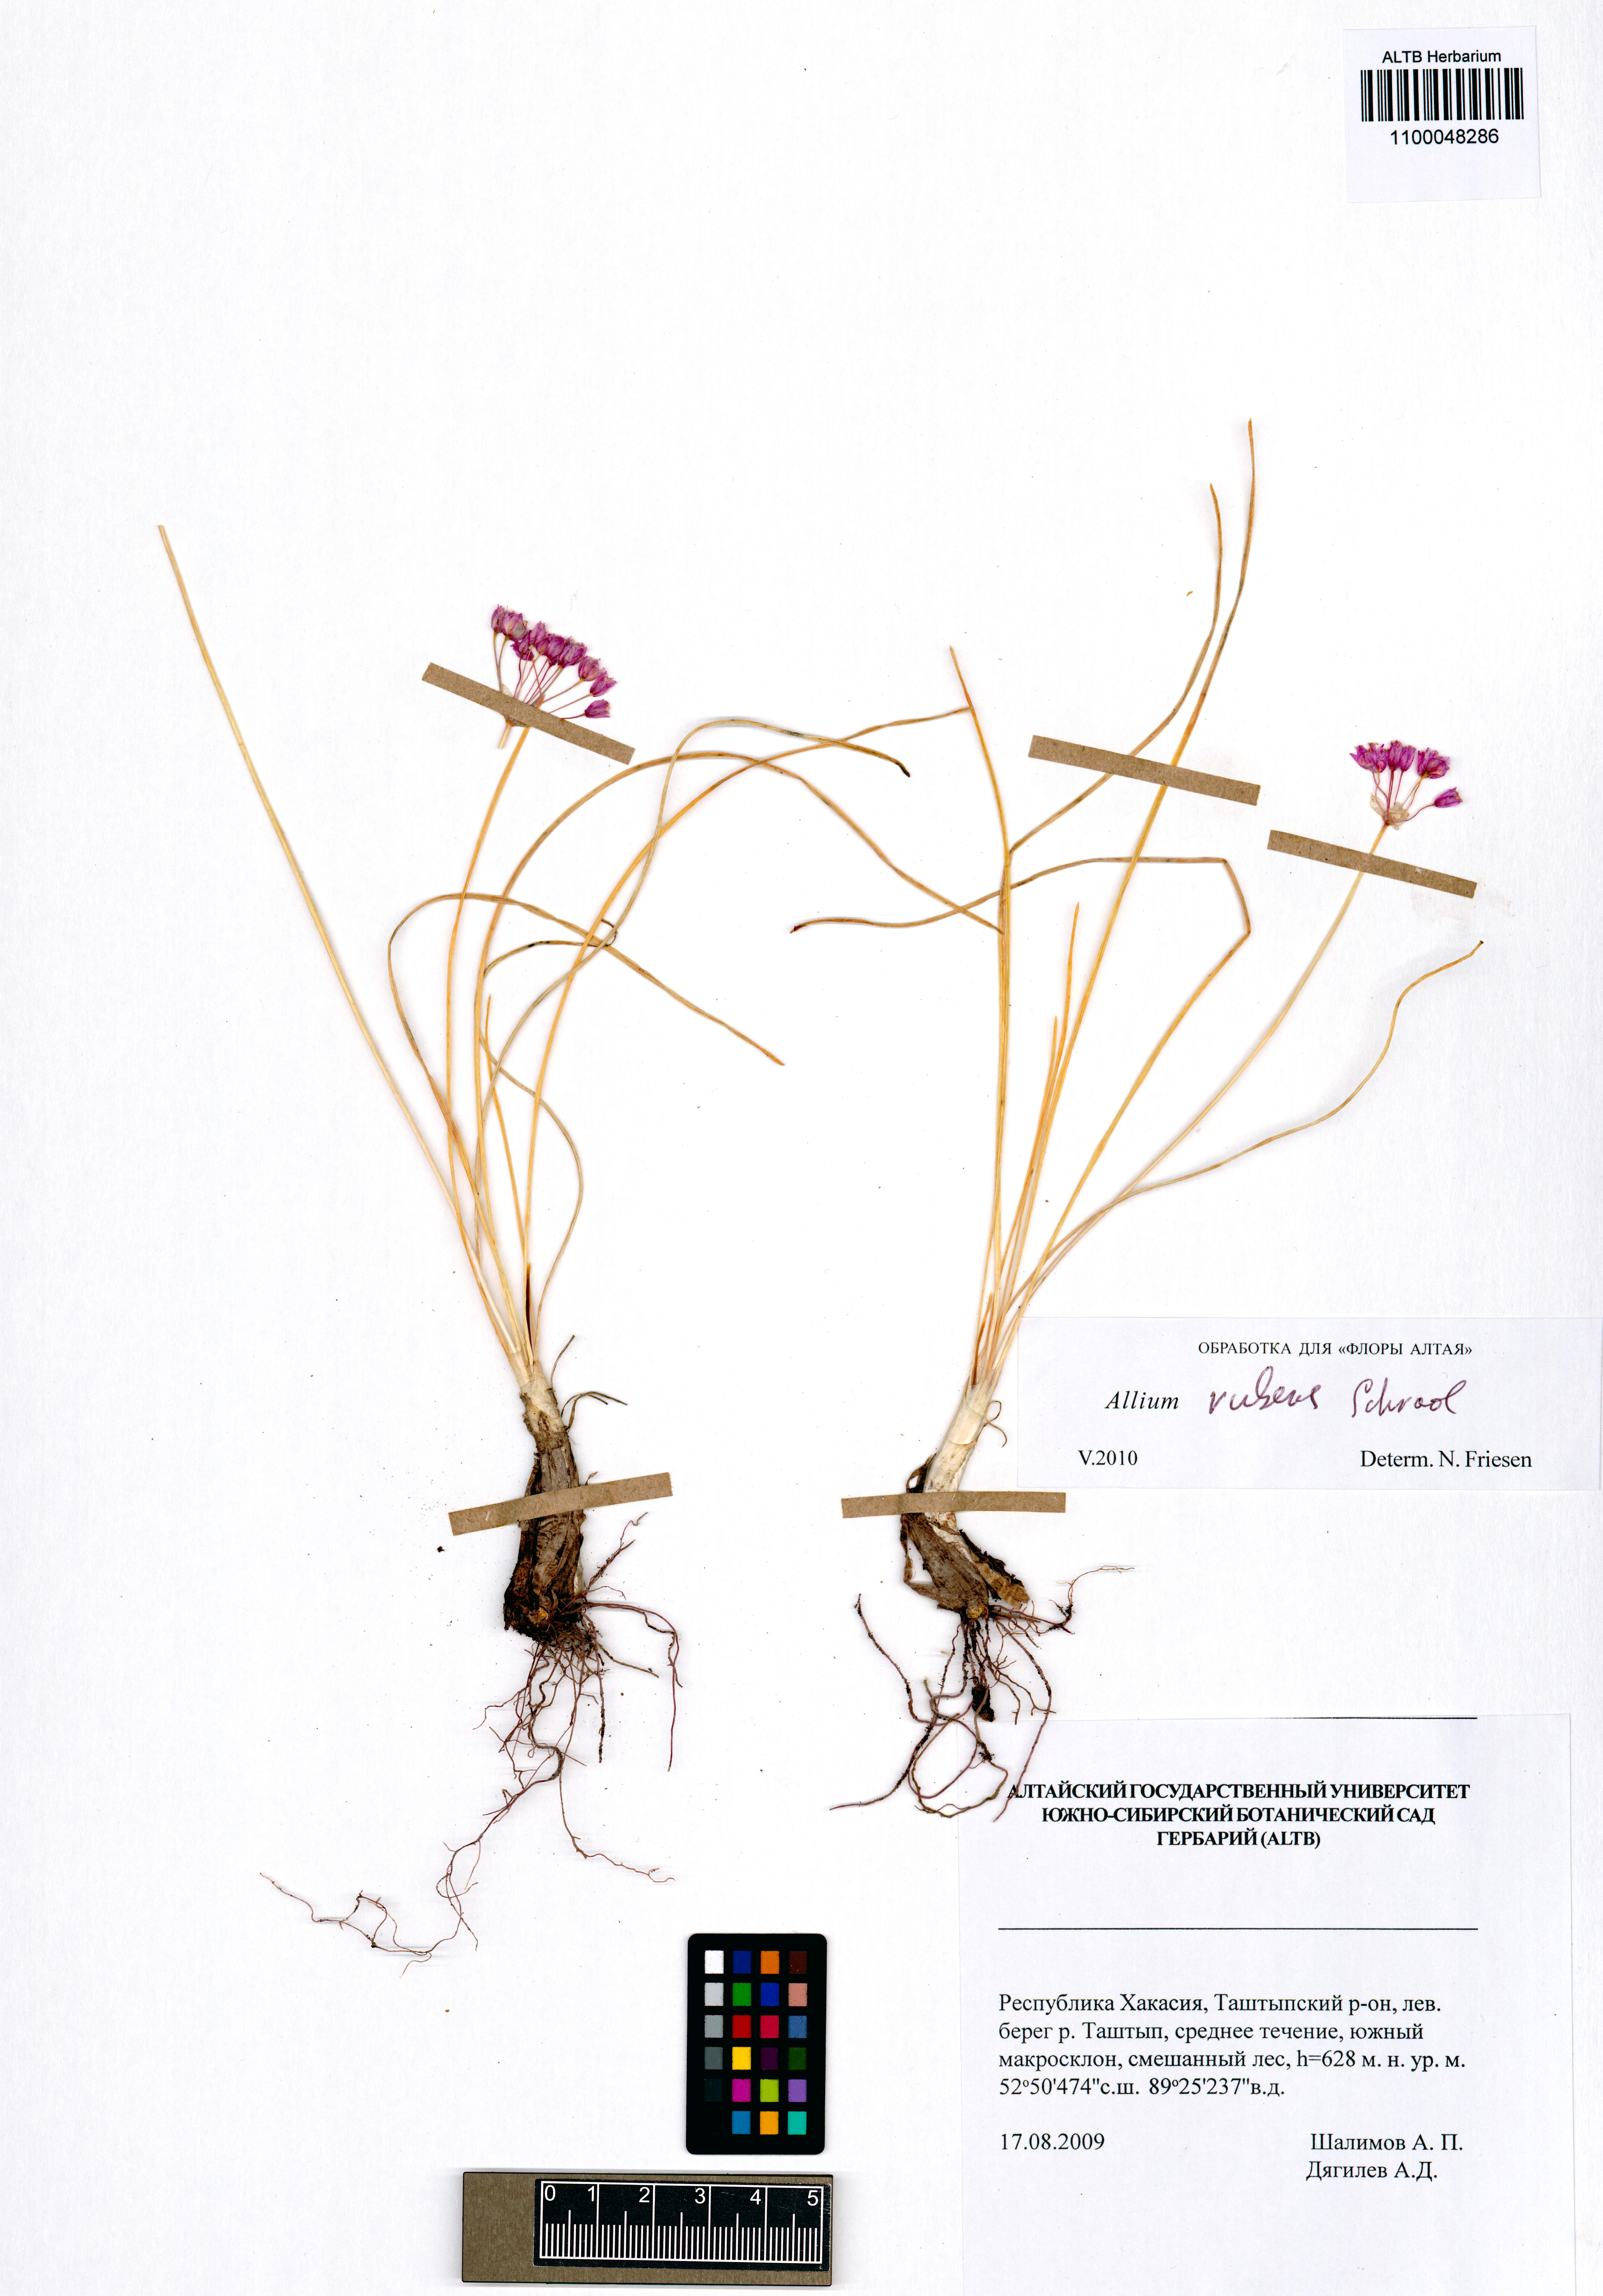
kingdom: Plantae
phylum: Tracheophyta
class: Liliopsida
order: Asparagales
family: Amaryllidaceae
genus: Allium
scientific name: Allium rubens
